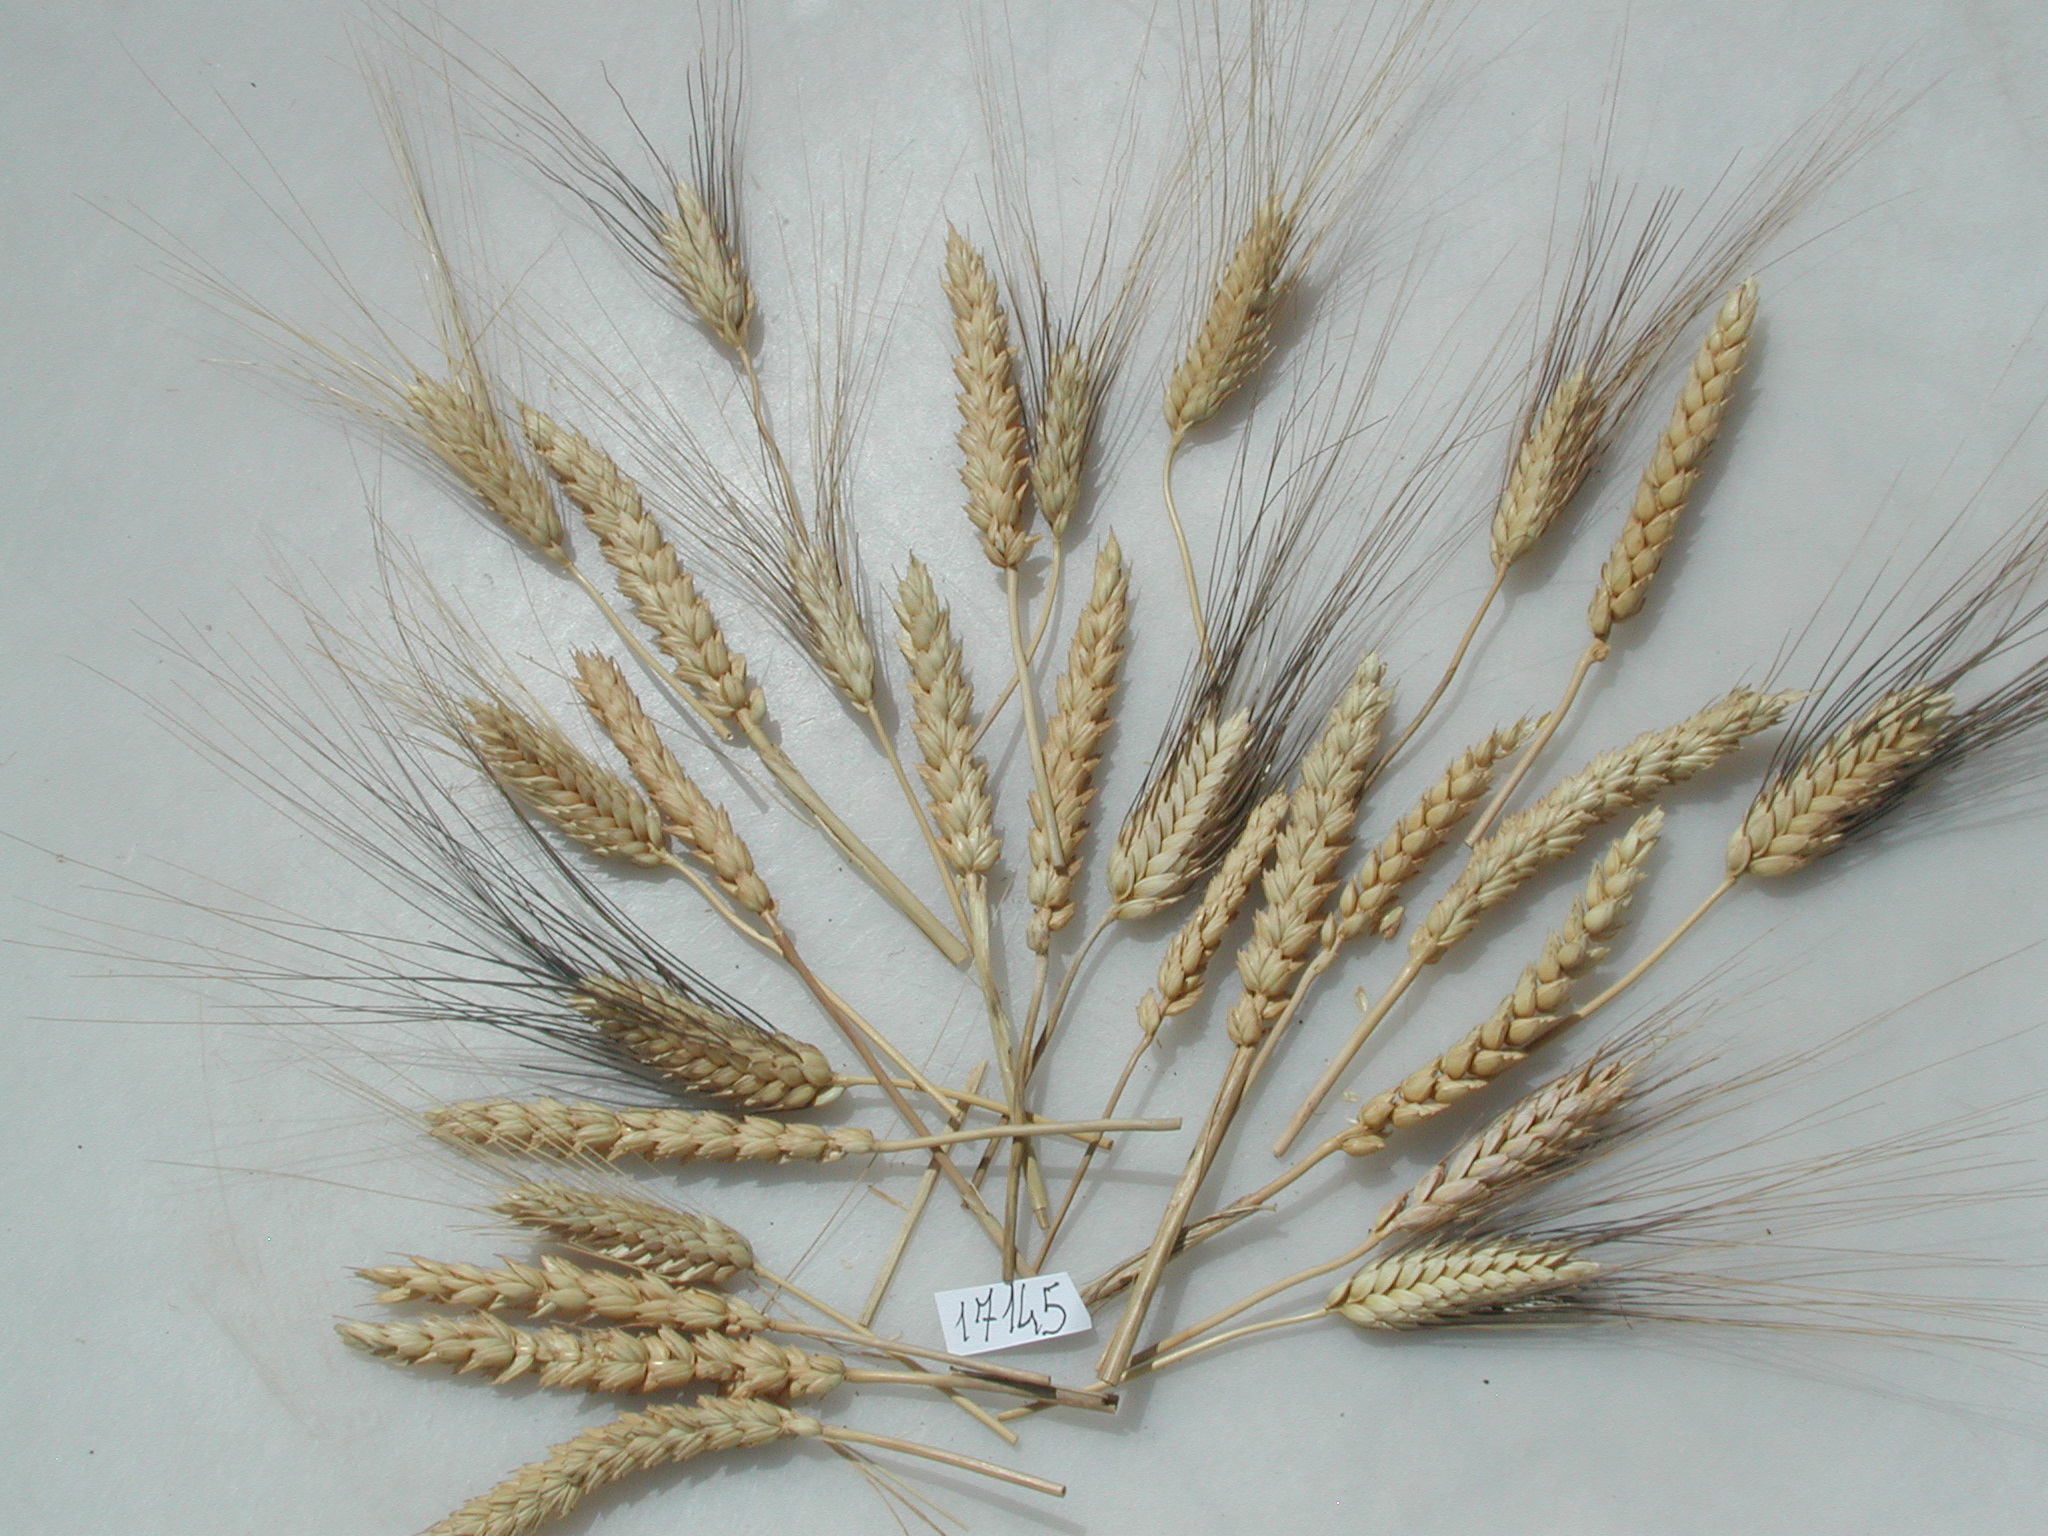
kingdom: Plantae
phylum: Tracheophyta
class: Liliopsida
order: Poales
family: Poaceae
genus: Triticum
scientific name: Triticum
